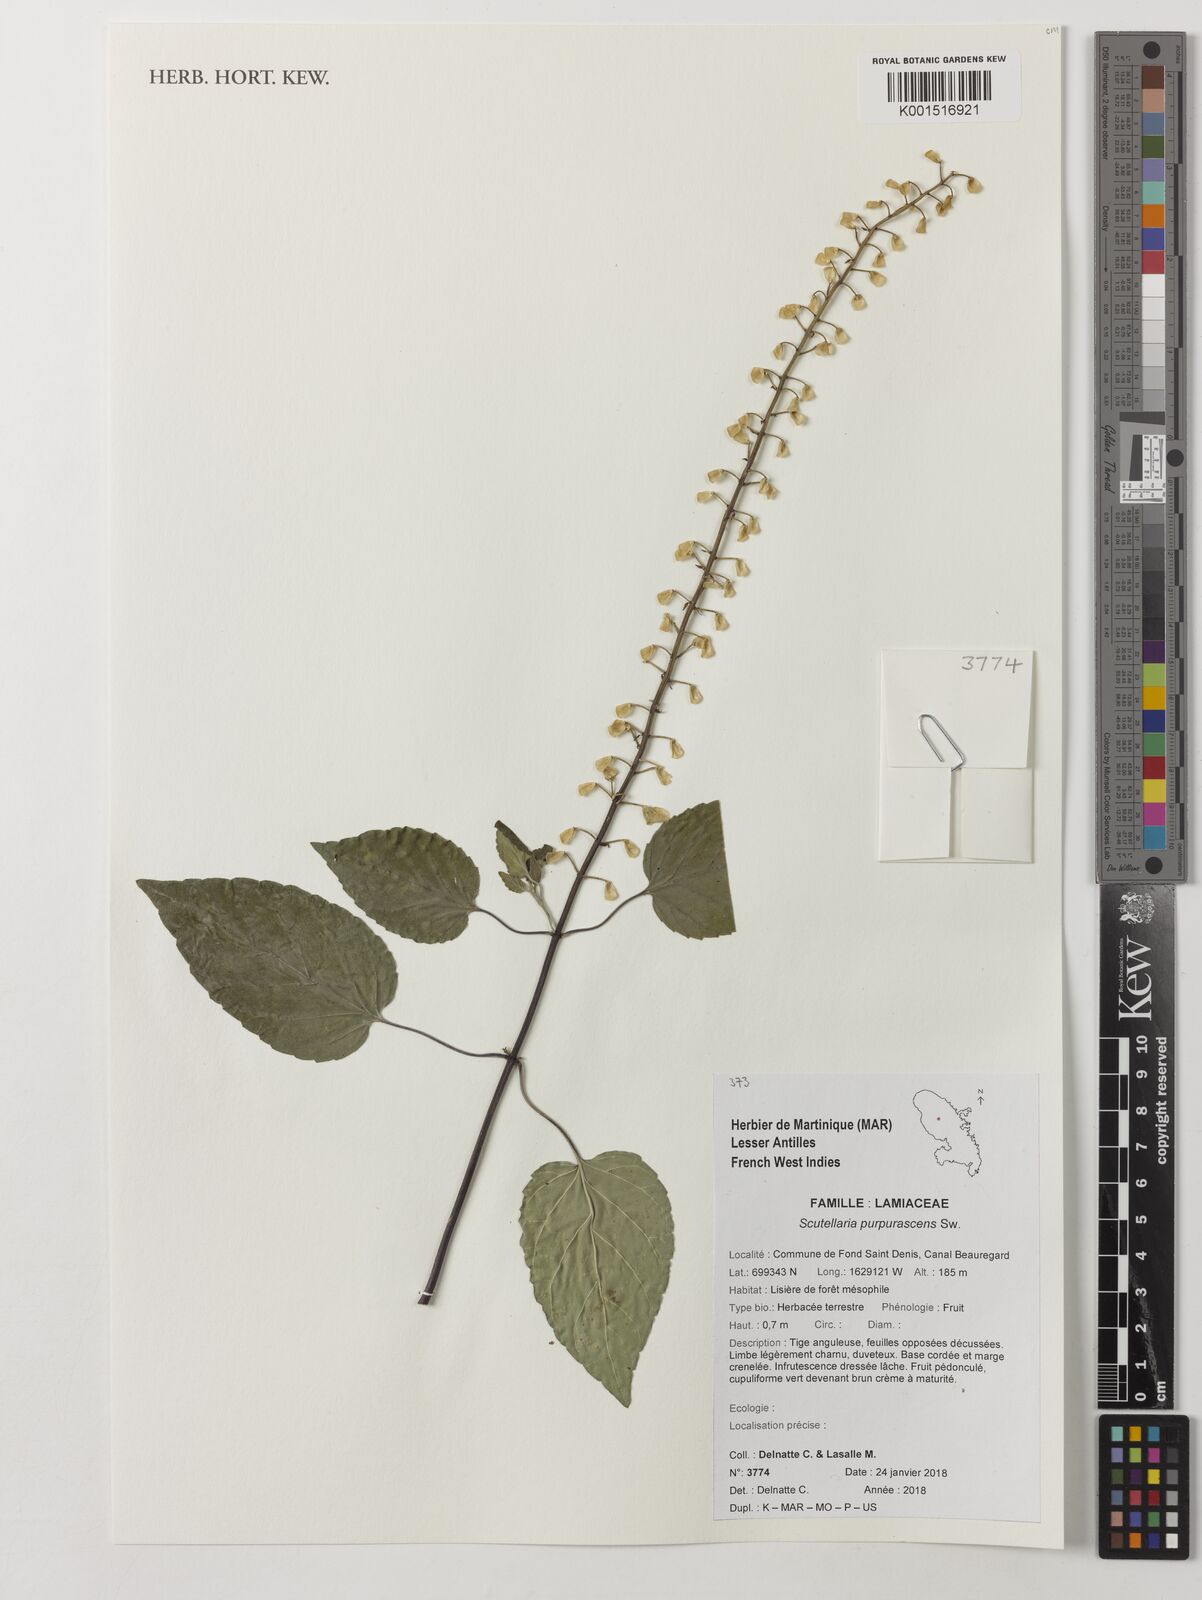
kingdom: Plantae
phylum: Tracheophyta
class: Magnoliopsida
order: Lamiales
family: Lamiaceae
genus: Scutellaria
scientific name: Scutellaria purpurascens
